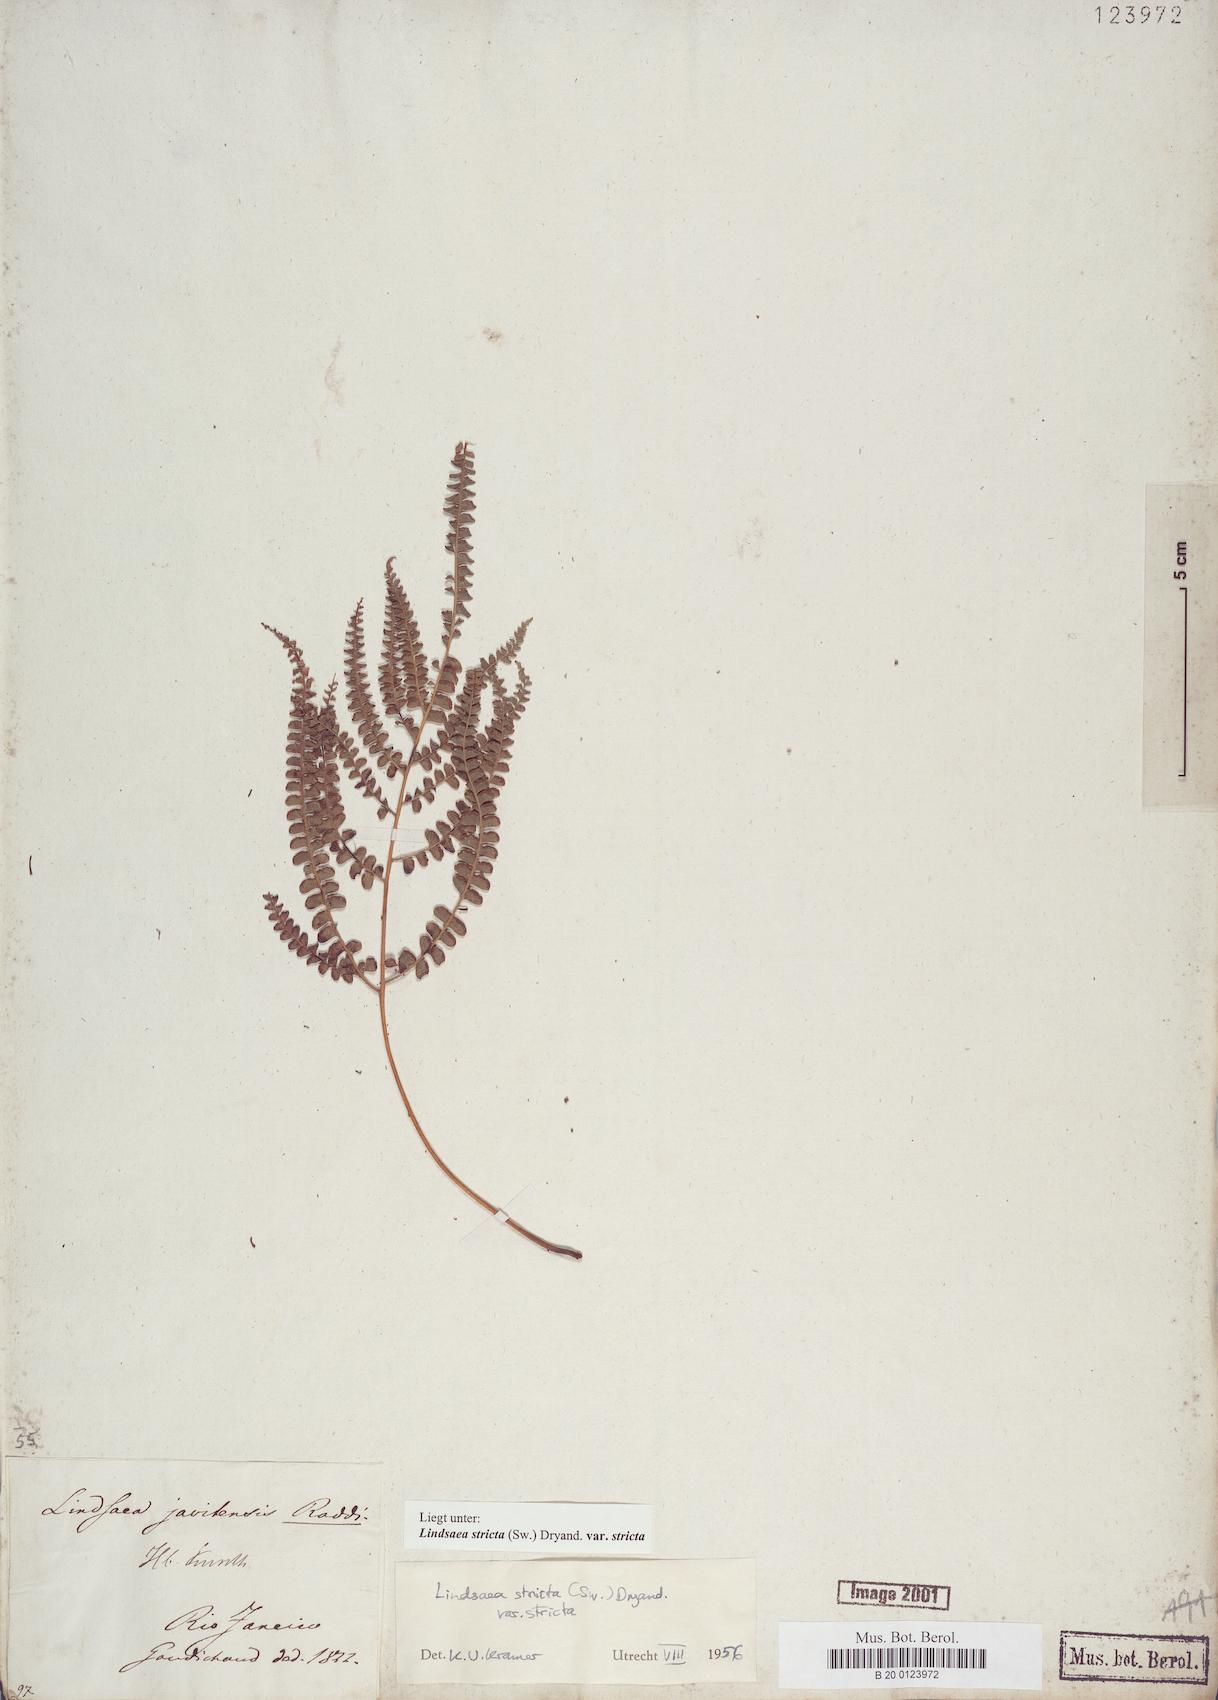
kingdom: Plantae
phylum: Tracheophyta
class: Polypodiopsida
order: Polypodiales
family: Lindsaeaceae
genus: Lindsaea
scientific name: Lindsaea stricta
